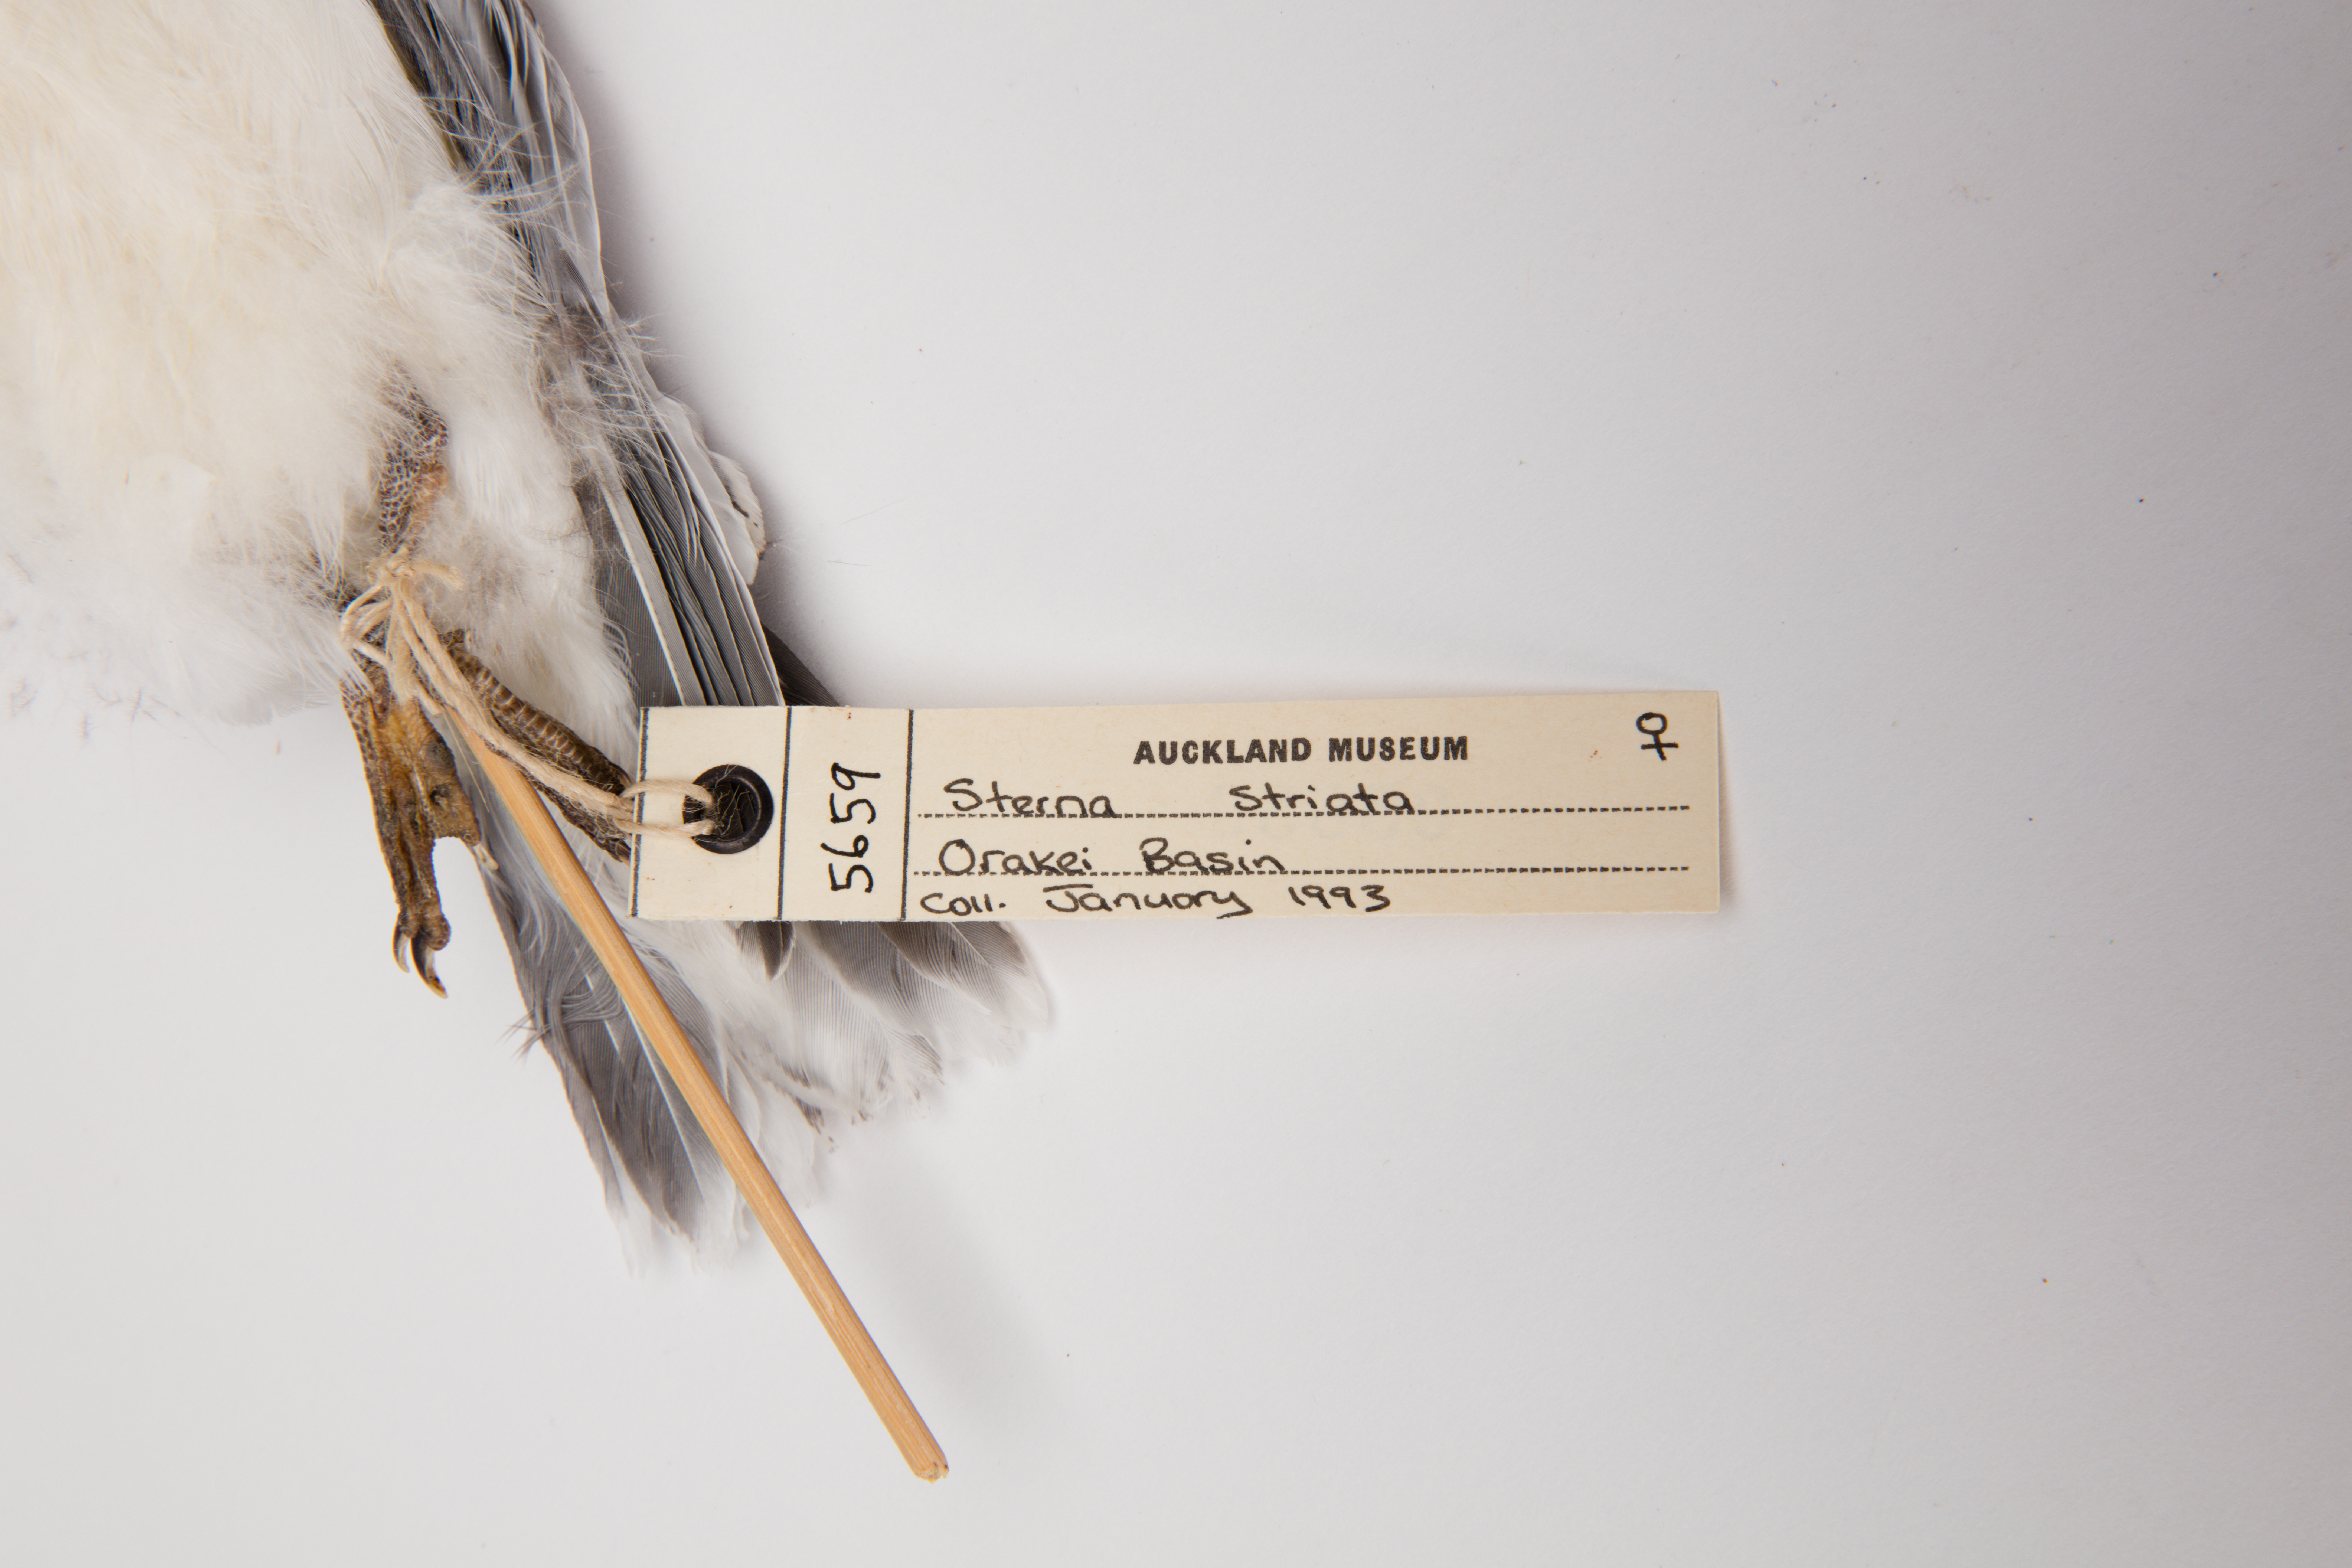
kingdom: Animalia
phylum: Chordata
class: Aves
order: Charadriiformes
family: Laridae
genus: Sterna
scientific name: Sterna striata
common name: White-fronted tern
